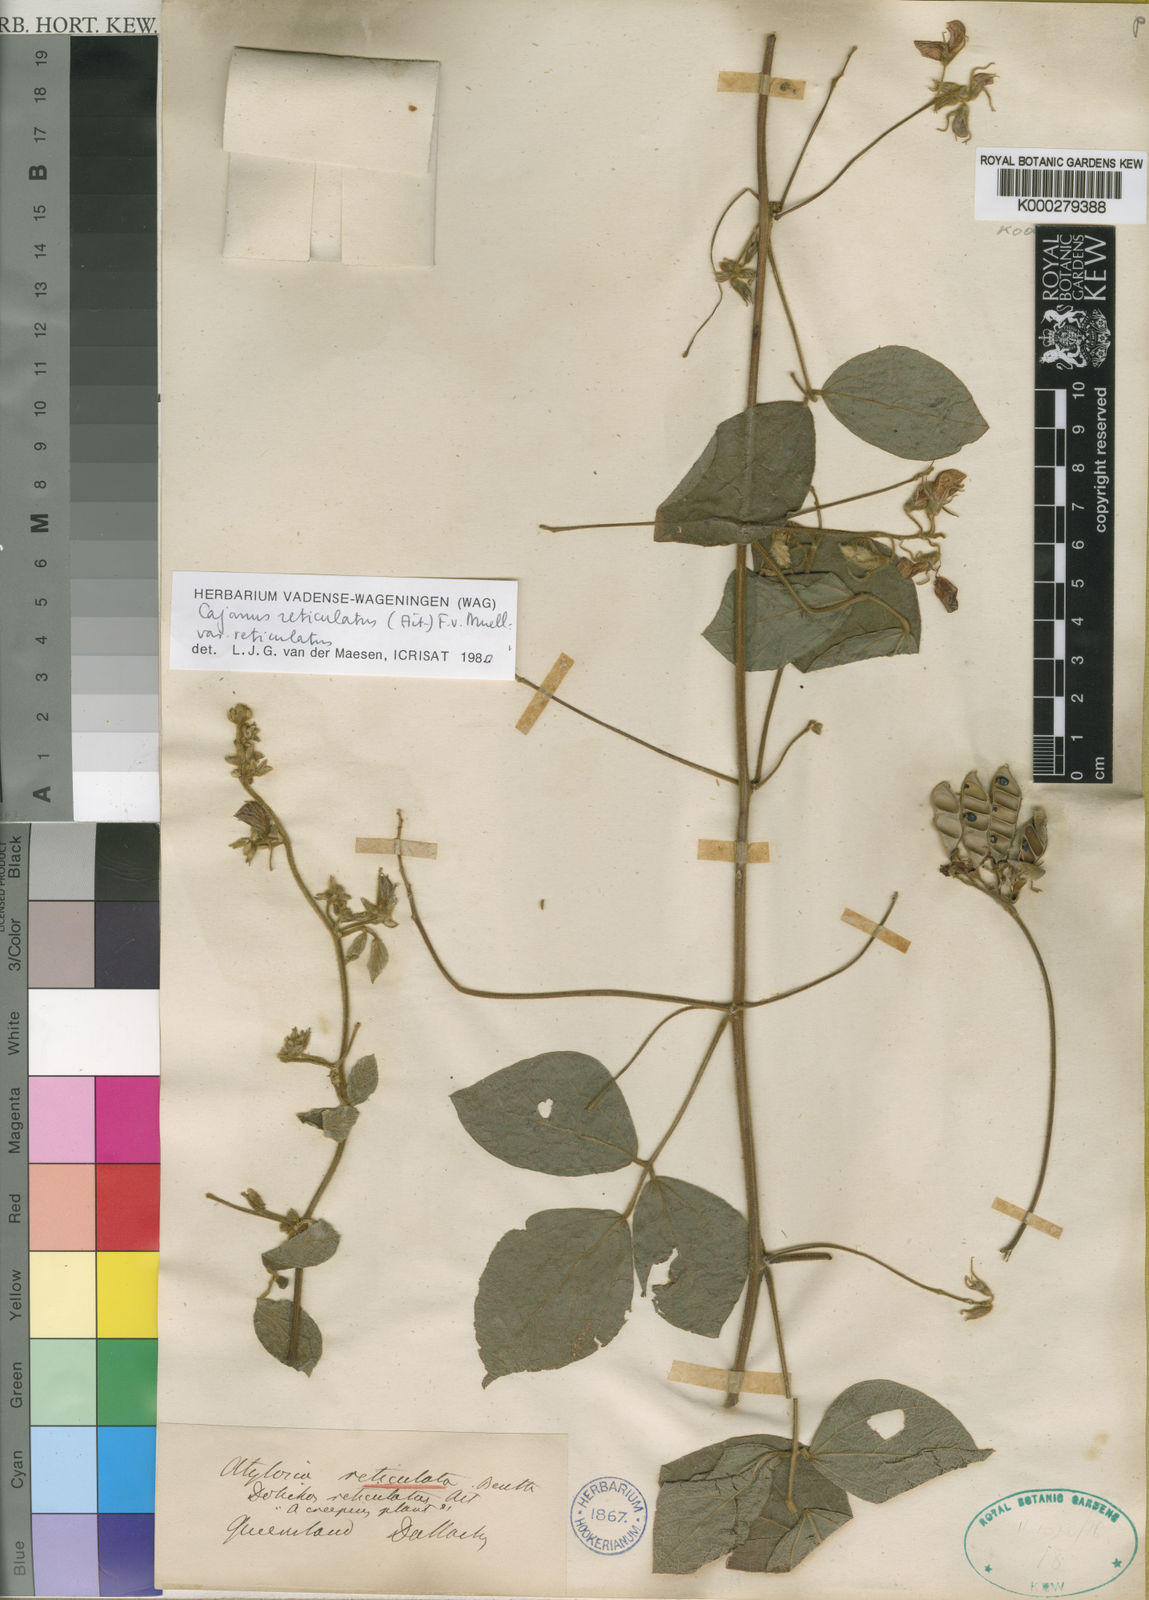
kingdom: Plantae
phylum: Tracheophyta
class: Magnoliopsida
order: Fabales
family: Fabaceae
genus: Cajanus
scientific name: Cajanus reticulatus
